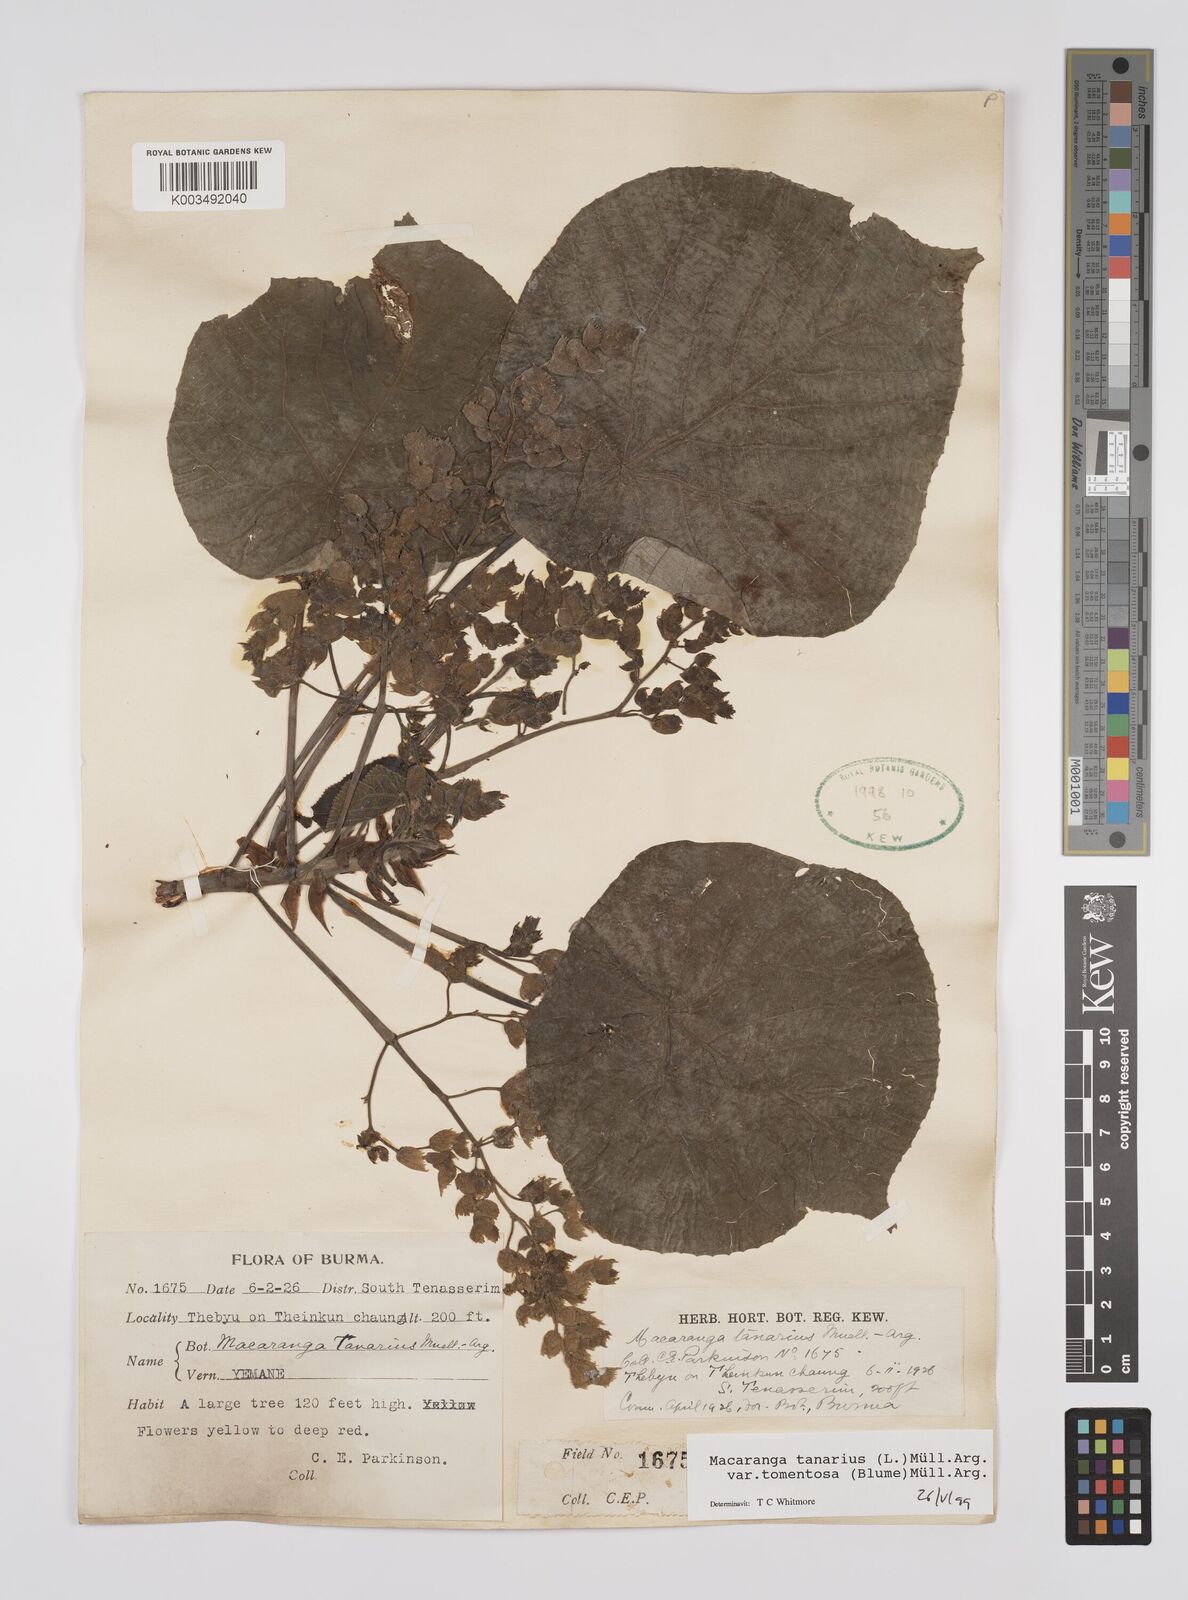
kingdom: Plantae
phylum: Tracheophyta
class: Magnoliopsida
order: Malpighiales
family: Euphorbiaceae
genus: Macaranga
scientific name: Macaranga tanarius
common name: Parasol leaf tree
